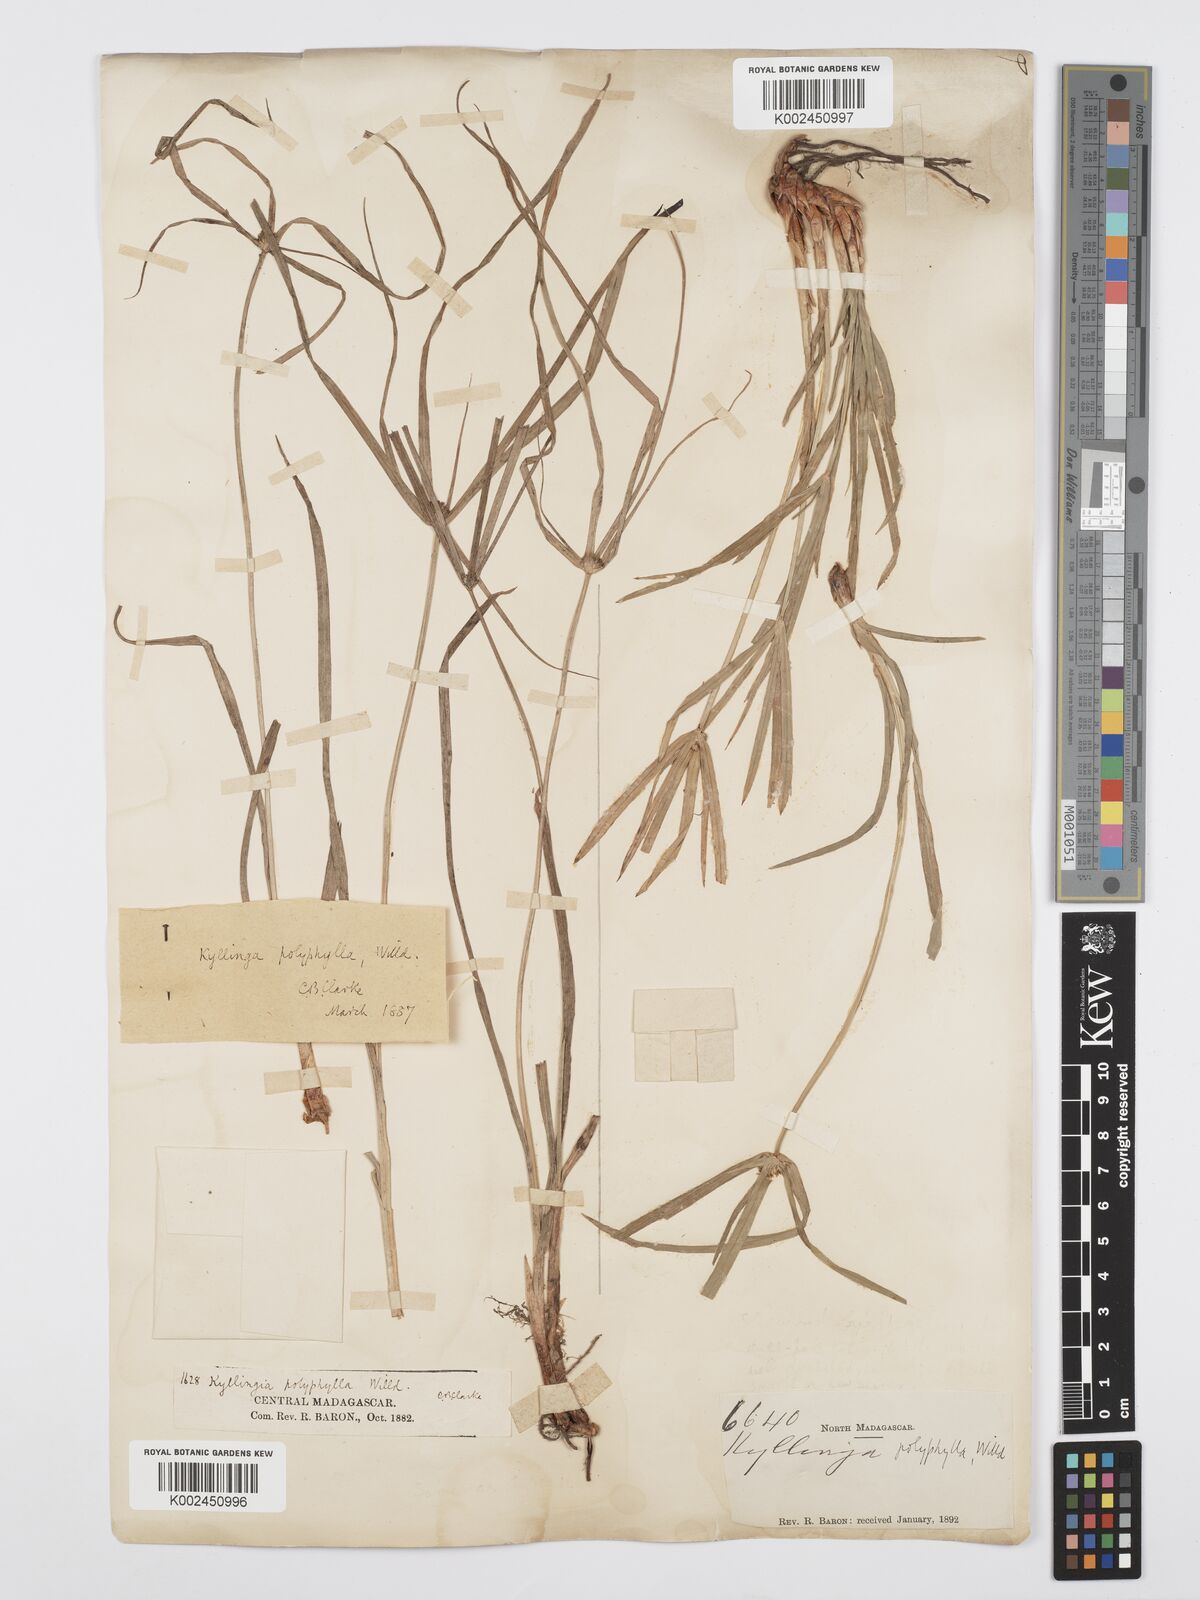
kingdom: Plantae
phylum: Tracheophyta
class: Liliopsida
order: Poales
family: Cyperaceae
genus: Cyperus
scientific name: Cyperus
